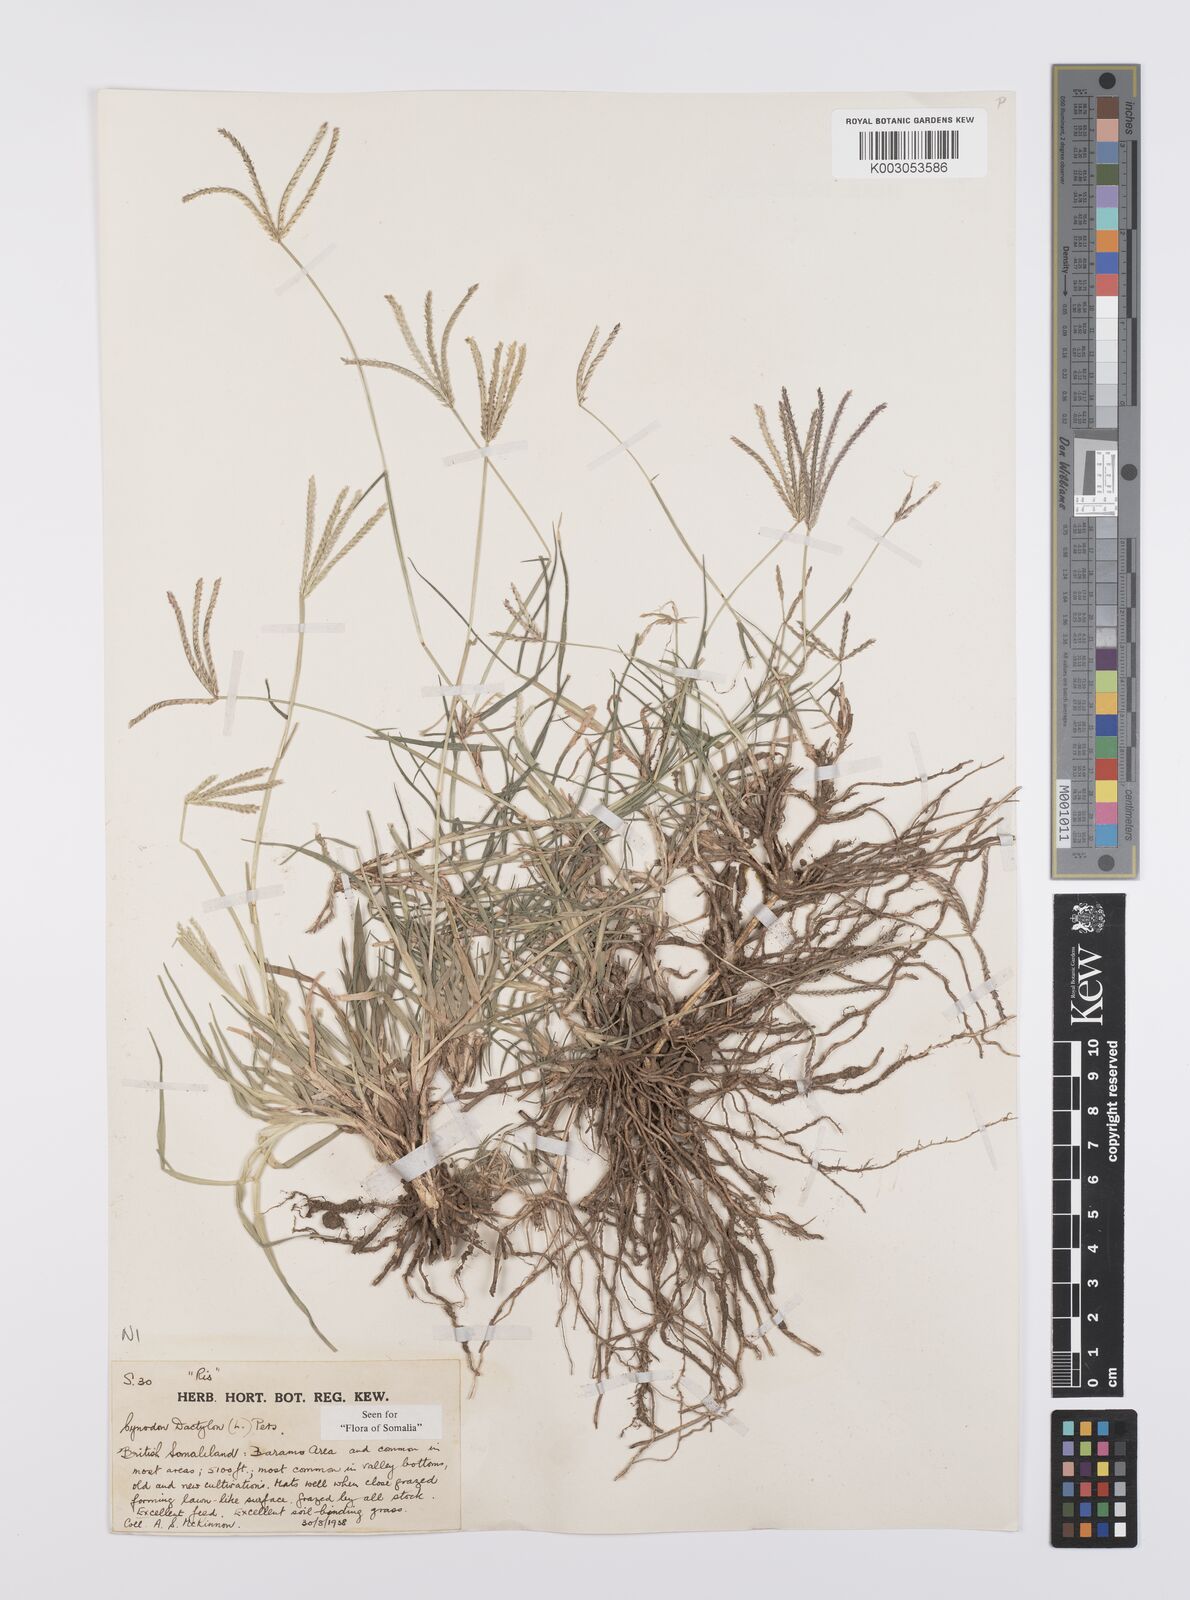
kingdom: Plantae
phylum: Tracheophyta
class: Liliopsida
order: Poales
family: Poaceae
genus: Cynodon
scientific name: Cynodon dactylon
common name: Bermuda grass
